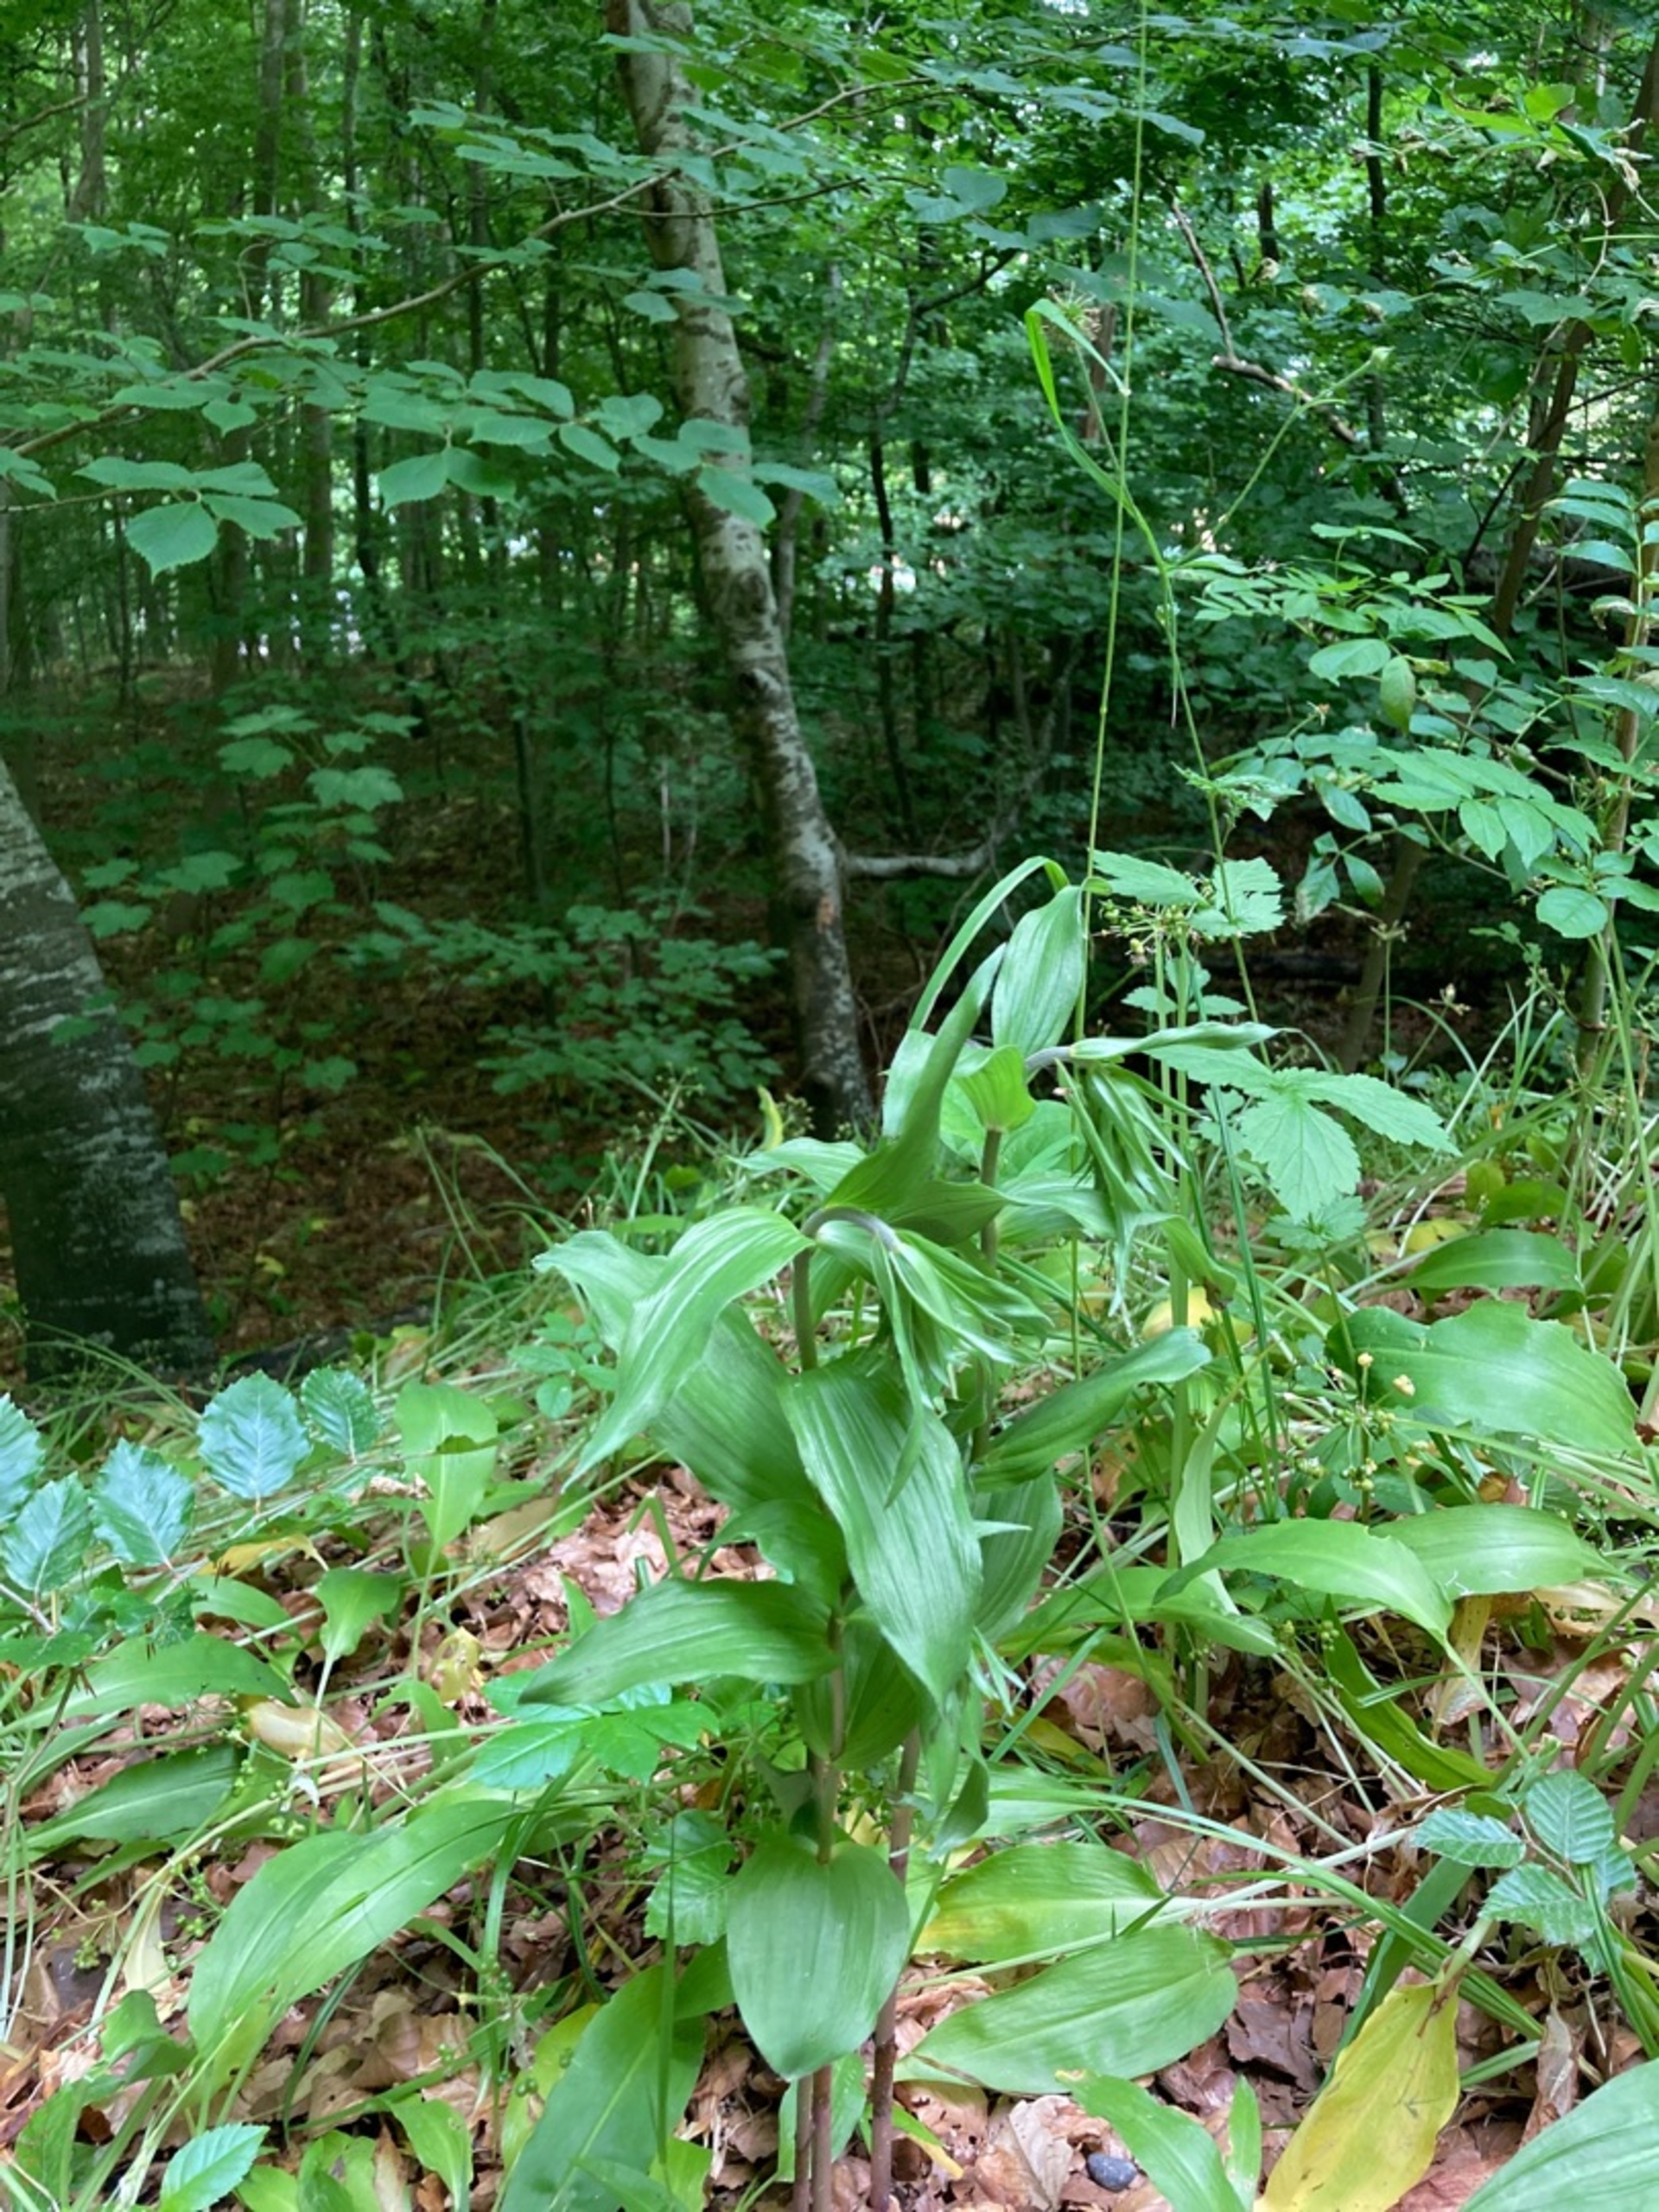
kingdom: Plantae
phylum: Tracheophyta
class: Liliopsida
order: Asparagales
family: Orchidaceae
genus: Epipactis
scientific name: Epipactis helleborine
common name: Skov-hullæbe
